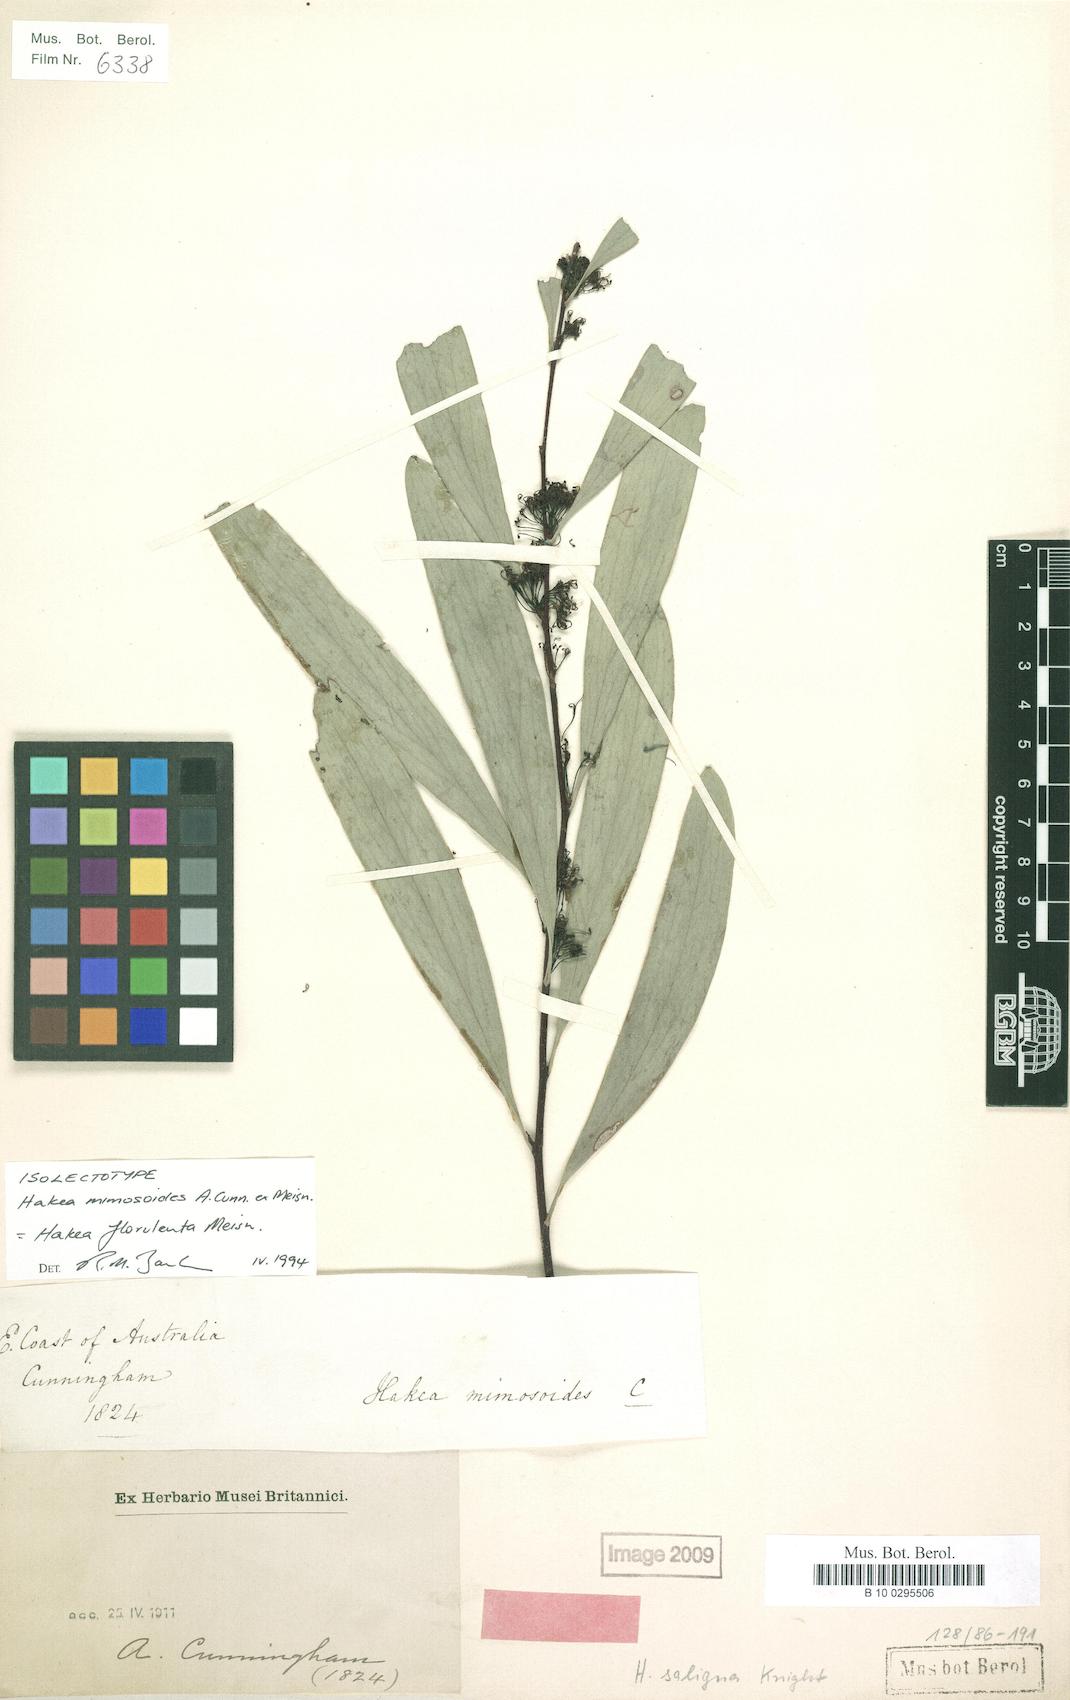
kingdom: Plantae
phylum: Tracheophyta
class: Magnoliopsida
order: Proteales
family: Proteaceae
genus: Hakea
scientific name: Hakea salicifolia
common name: Willow hakea
